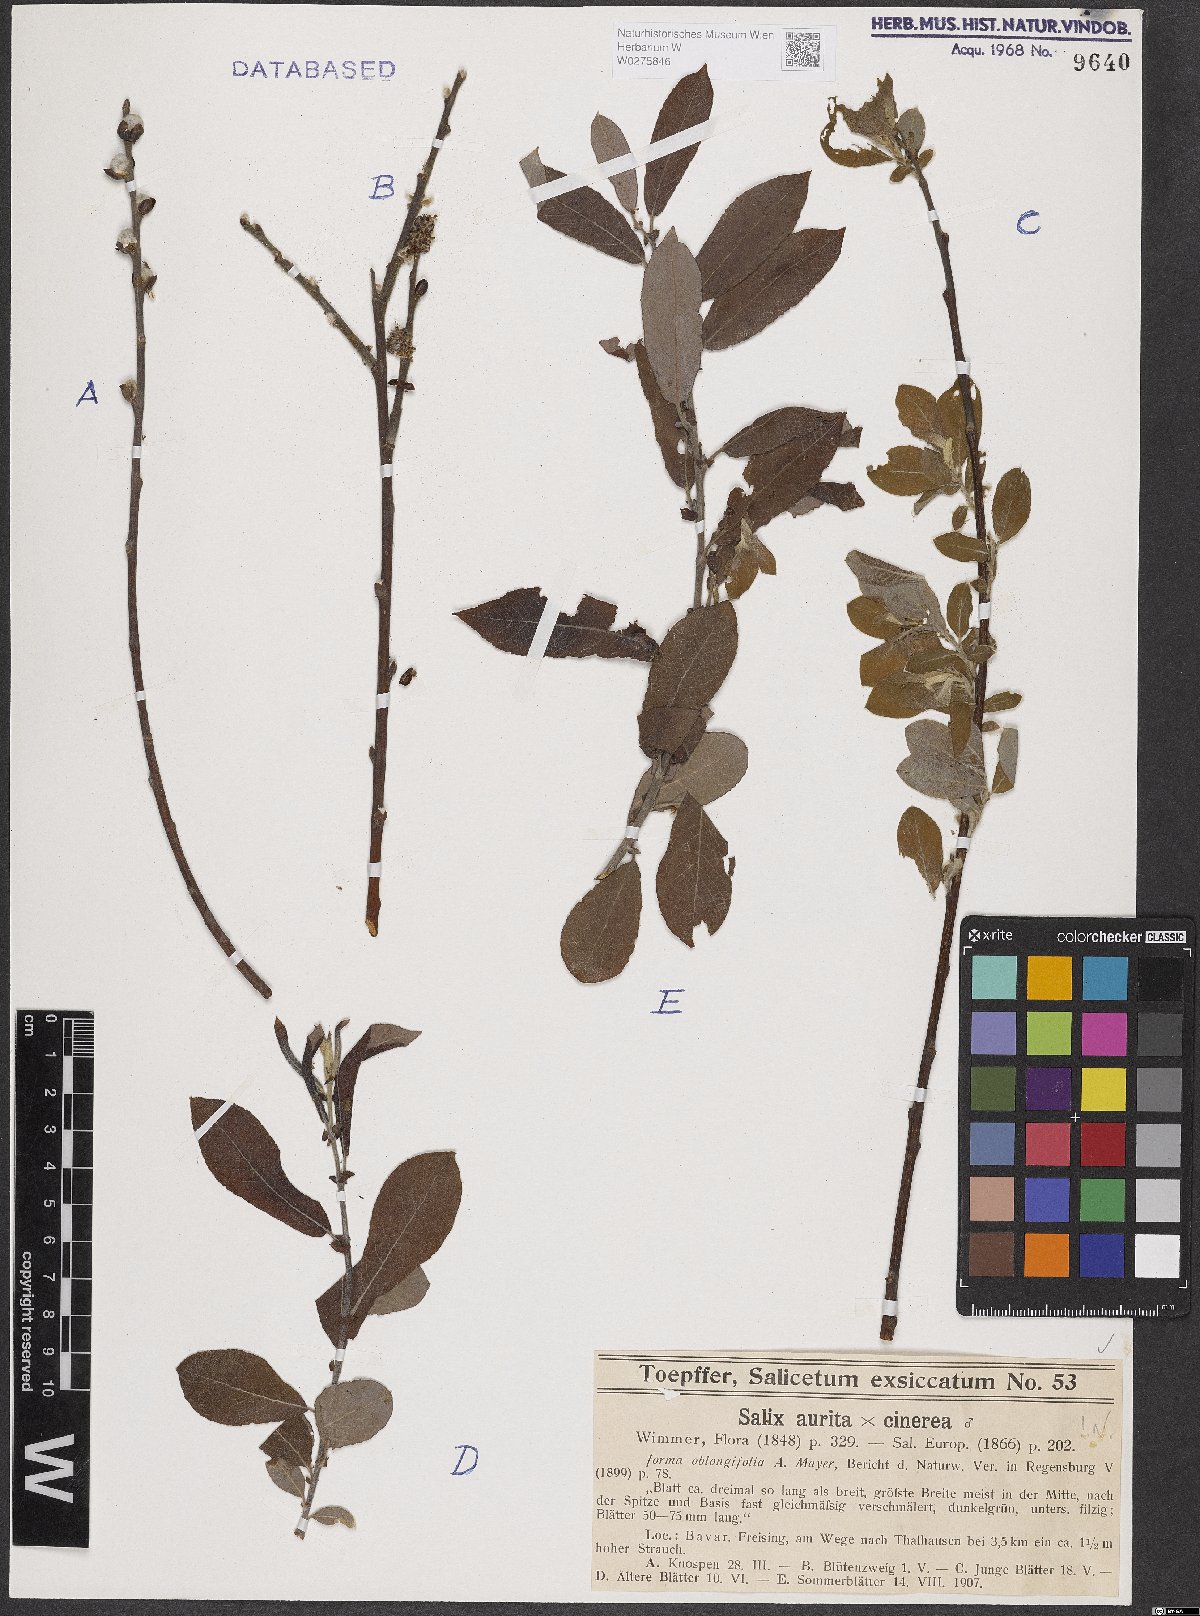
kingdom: Plantae
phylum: Tracheophyta
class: Magnoliopsida
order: Malpighiales
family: Salicaceae
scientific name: Salicaceae
